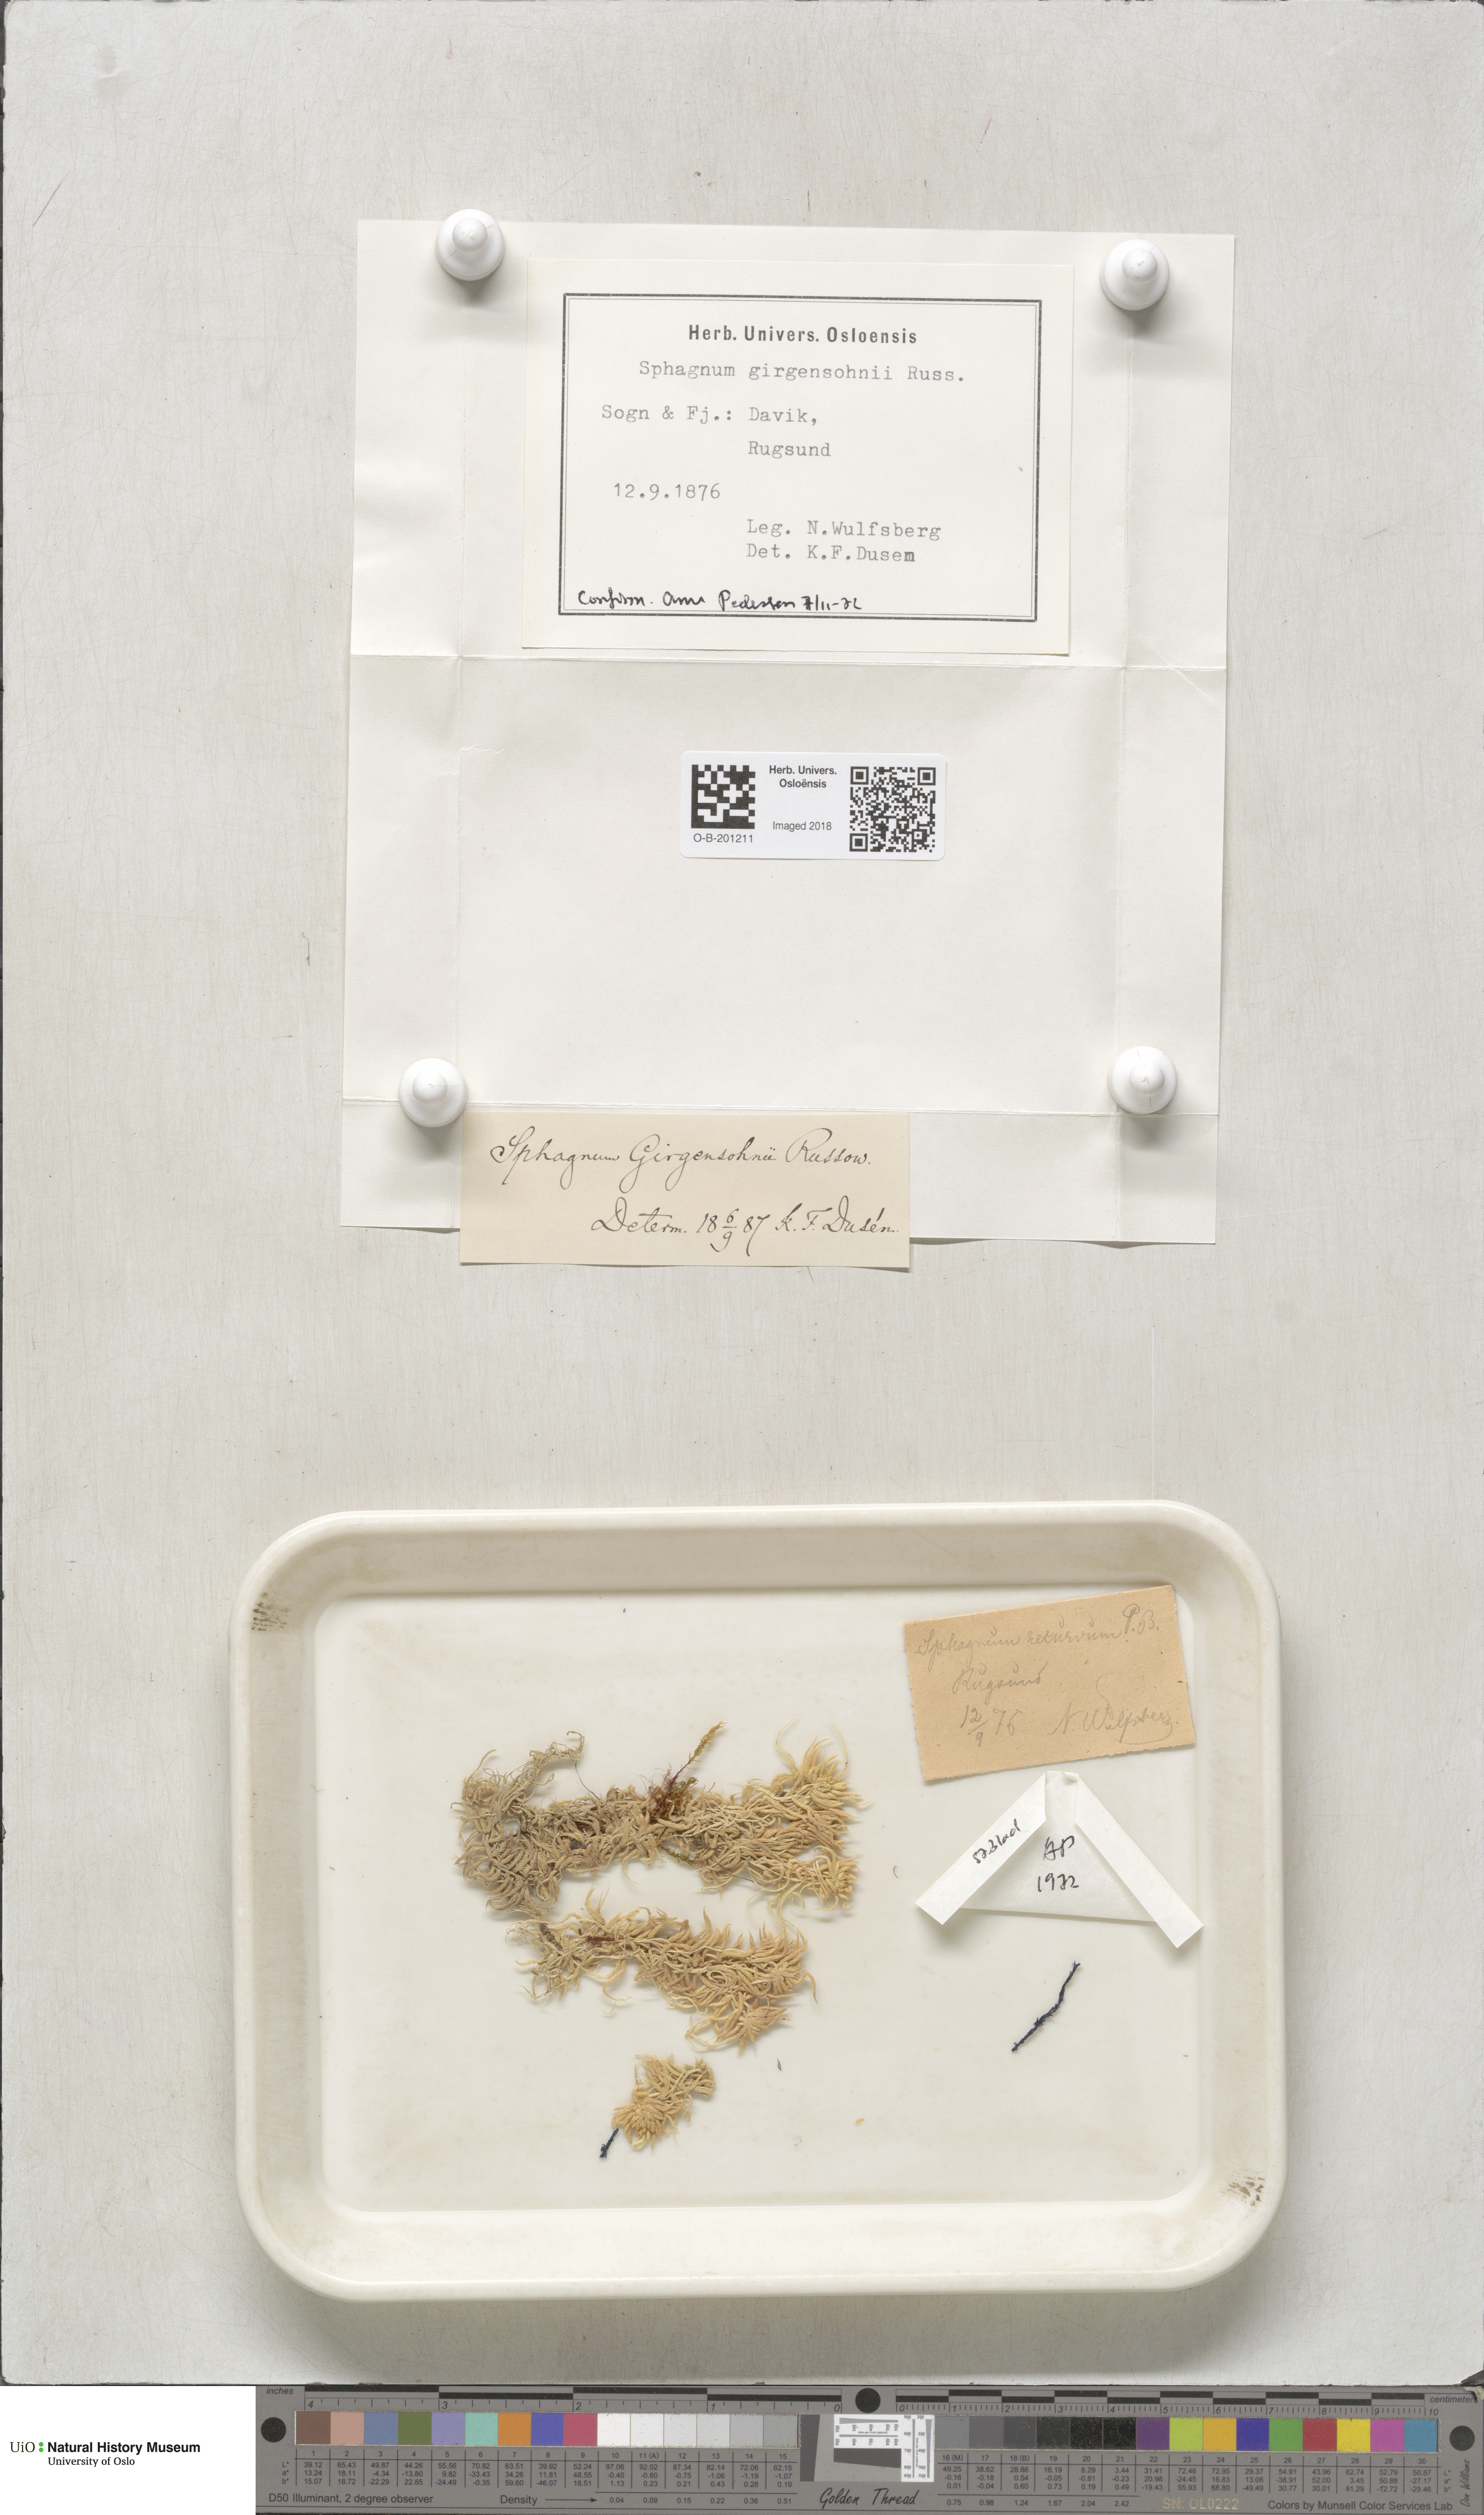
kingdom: Plantae
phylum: Bryophyta
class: Sphagnopsida
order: Sphagnales
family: Sphagnaceae
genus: Sphagnum
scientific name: Sphagnum girgensohnii
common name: Girgensohn's peat moss
